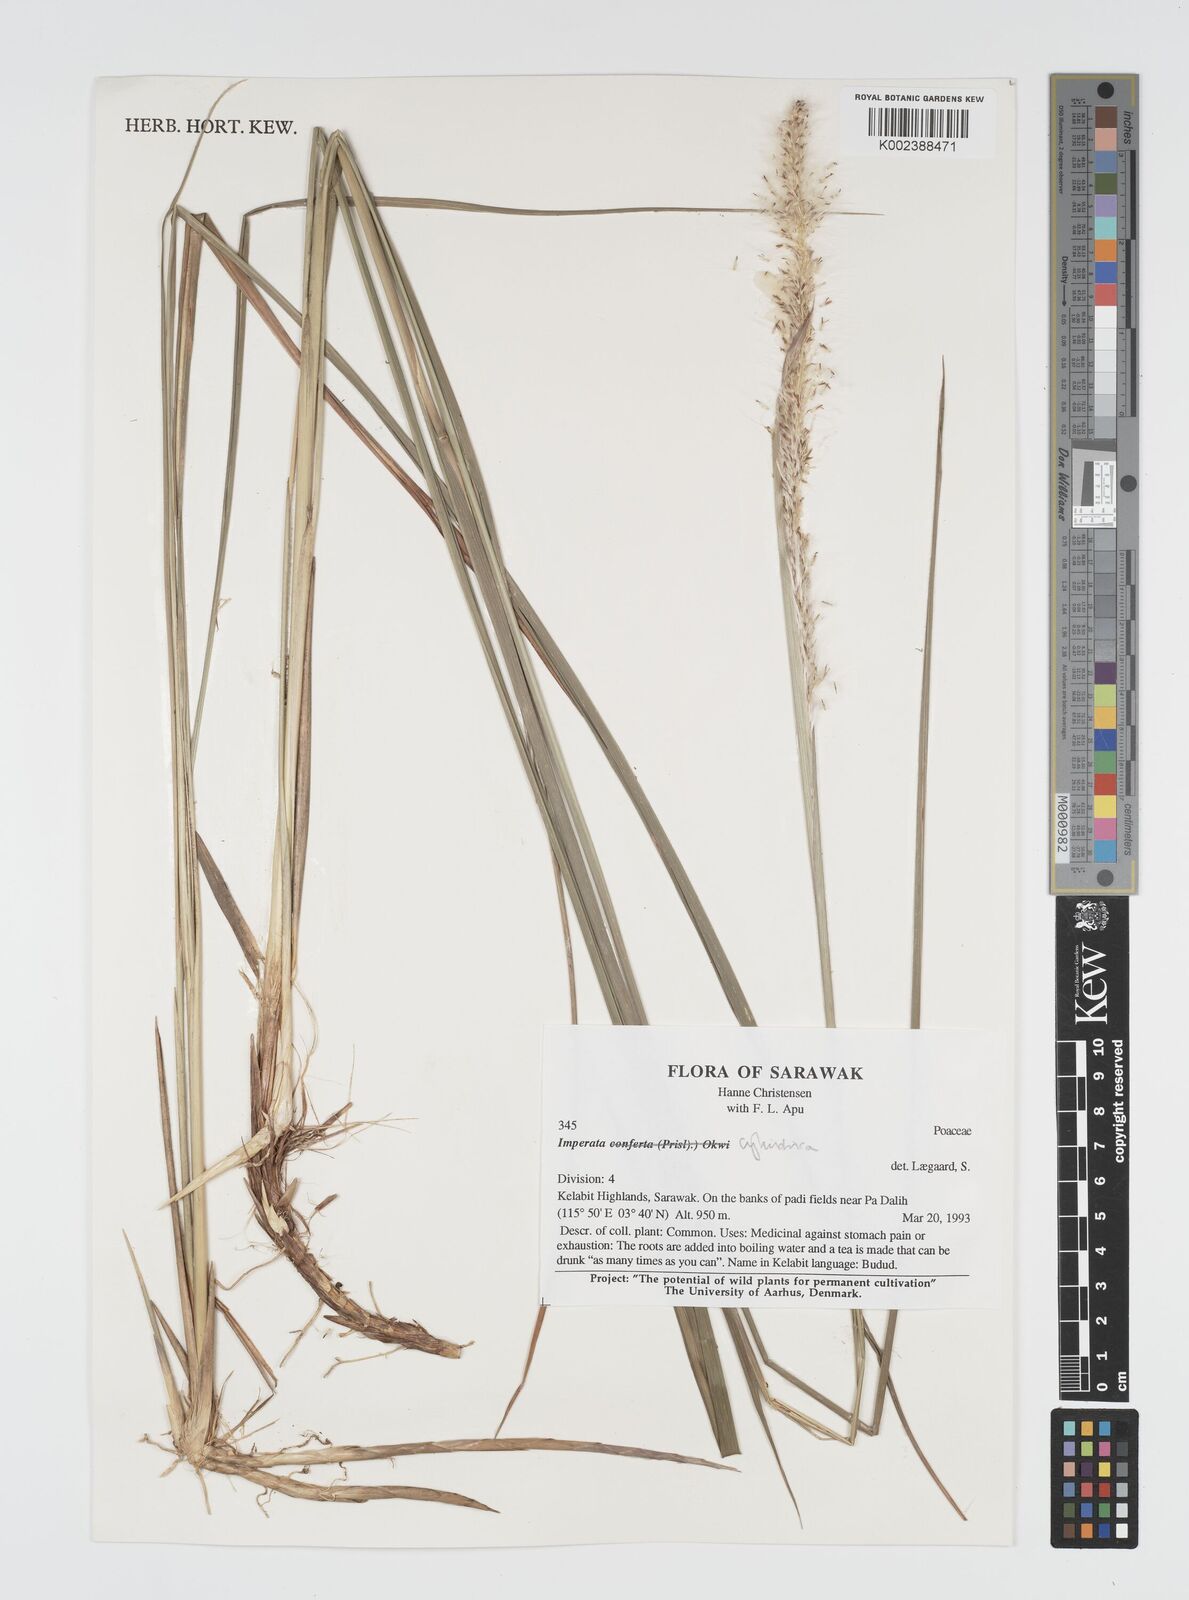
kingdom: Plantae
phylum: Tracheophyta
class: Liliopsida
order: Poales
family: Poaceae
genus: Imperata
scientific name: Imperata cylindrica
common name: Cogongrass
